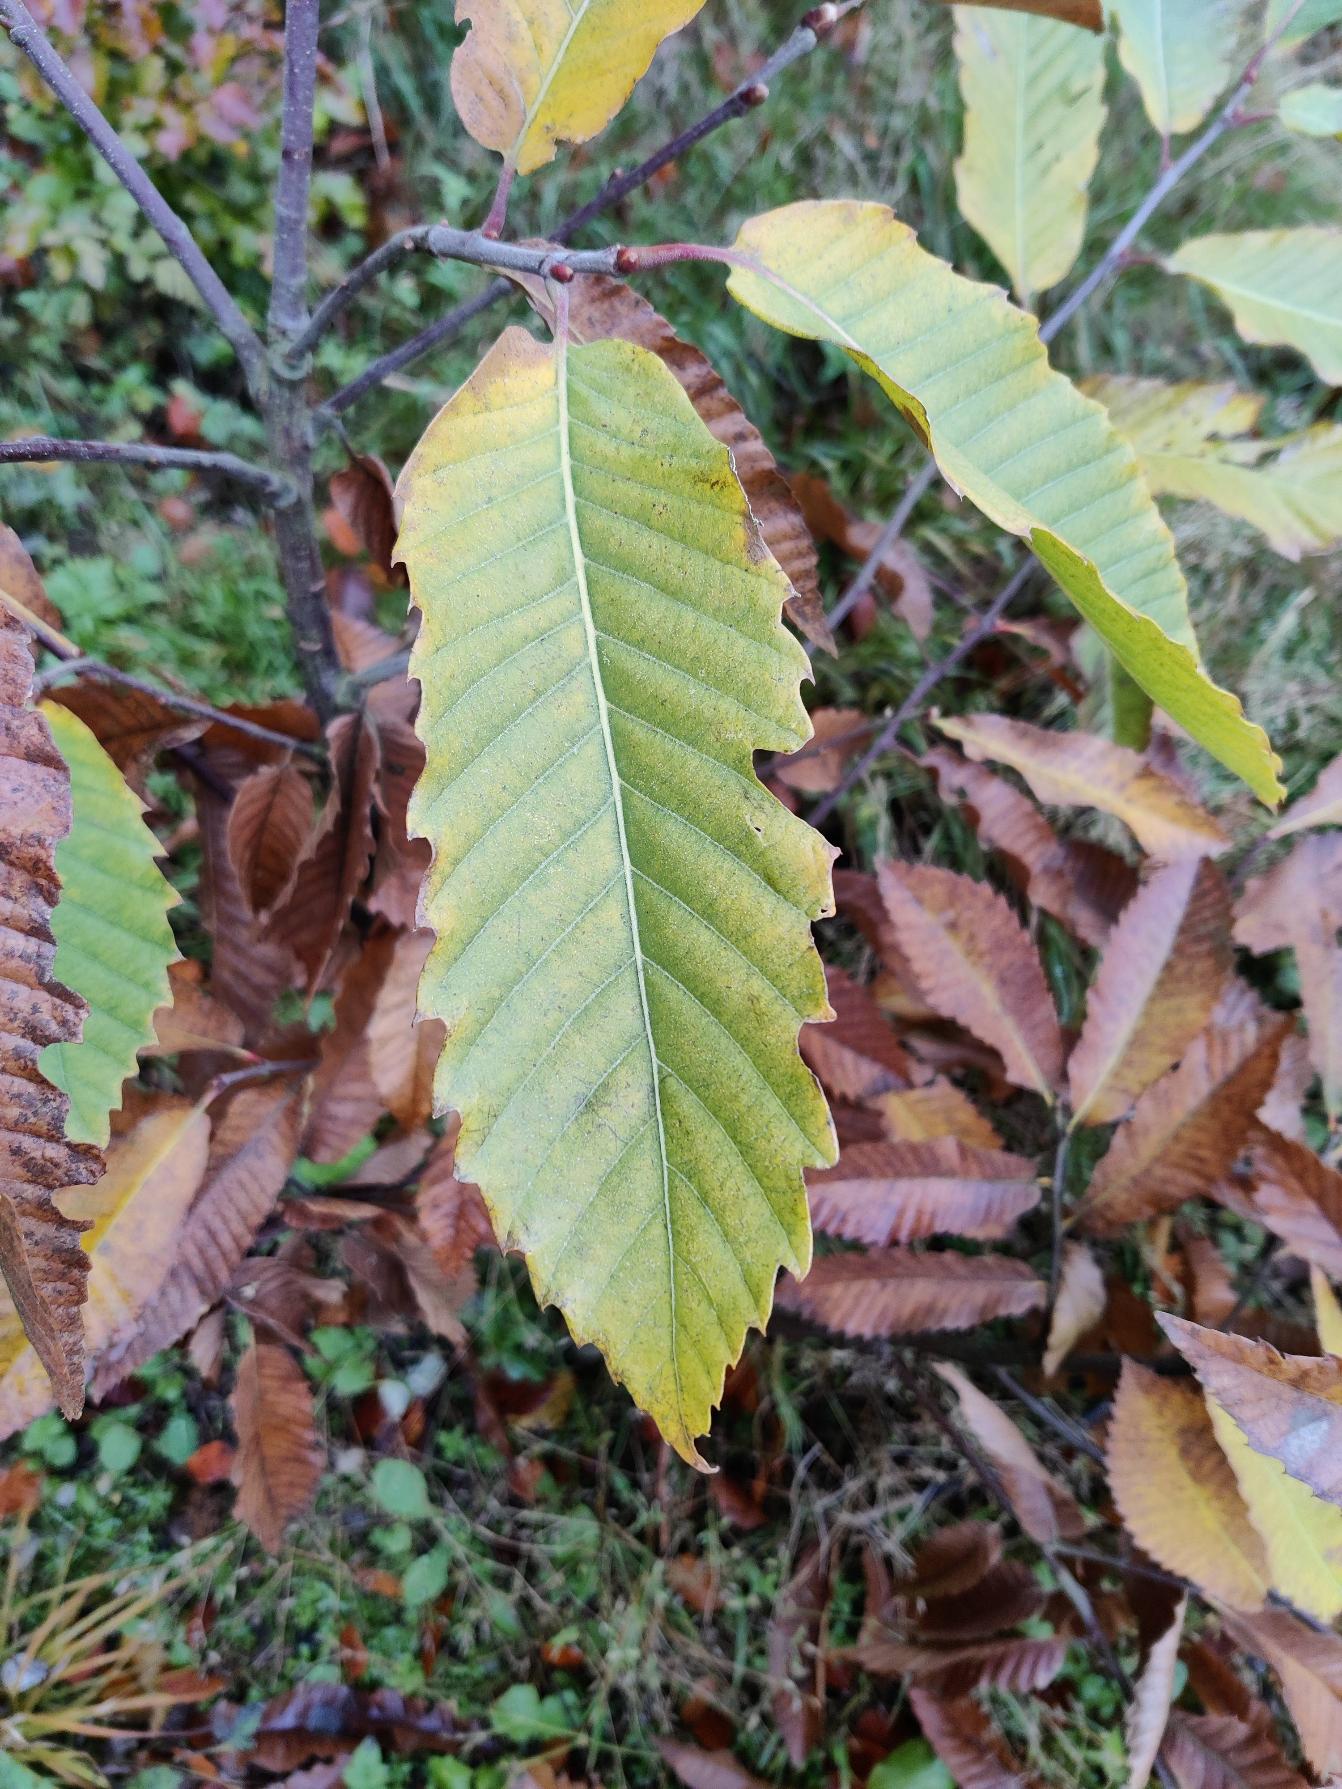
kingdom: Plantae
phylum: Tracheophyta
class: Magnoliopsida
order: Fagales
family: Fagaceae
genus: Castanea
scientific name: Castanea sativa
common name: Ægte kastanie
